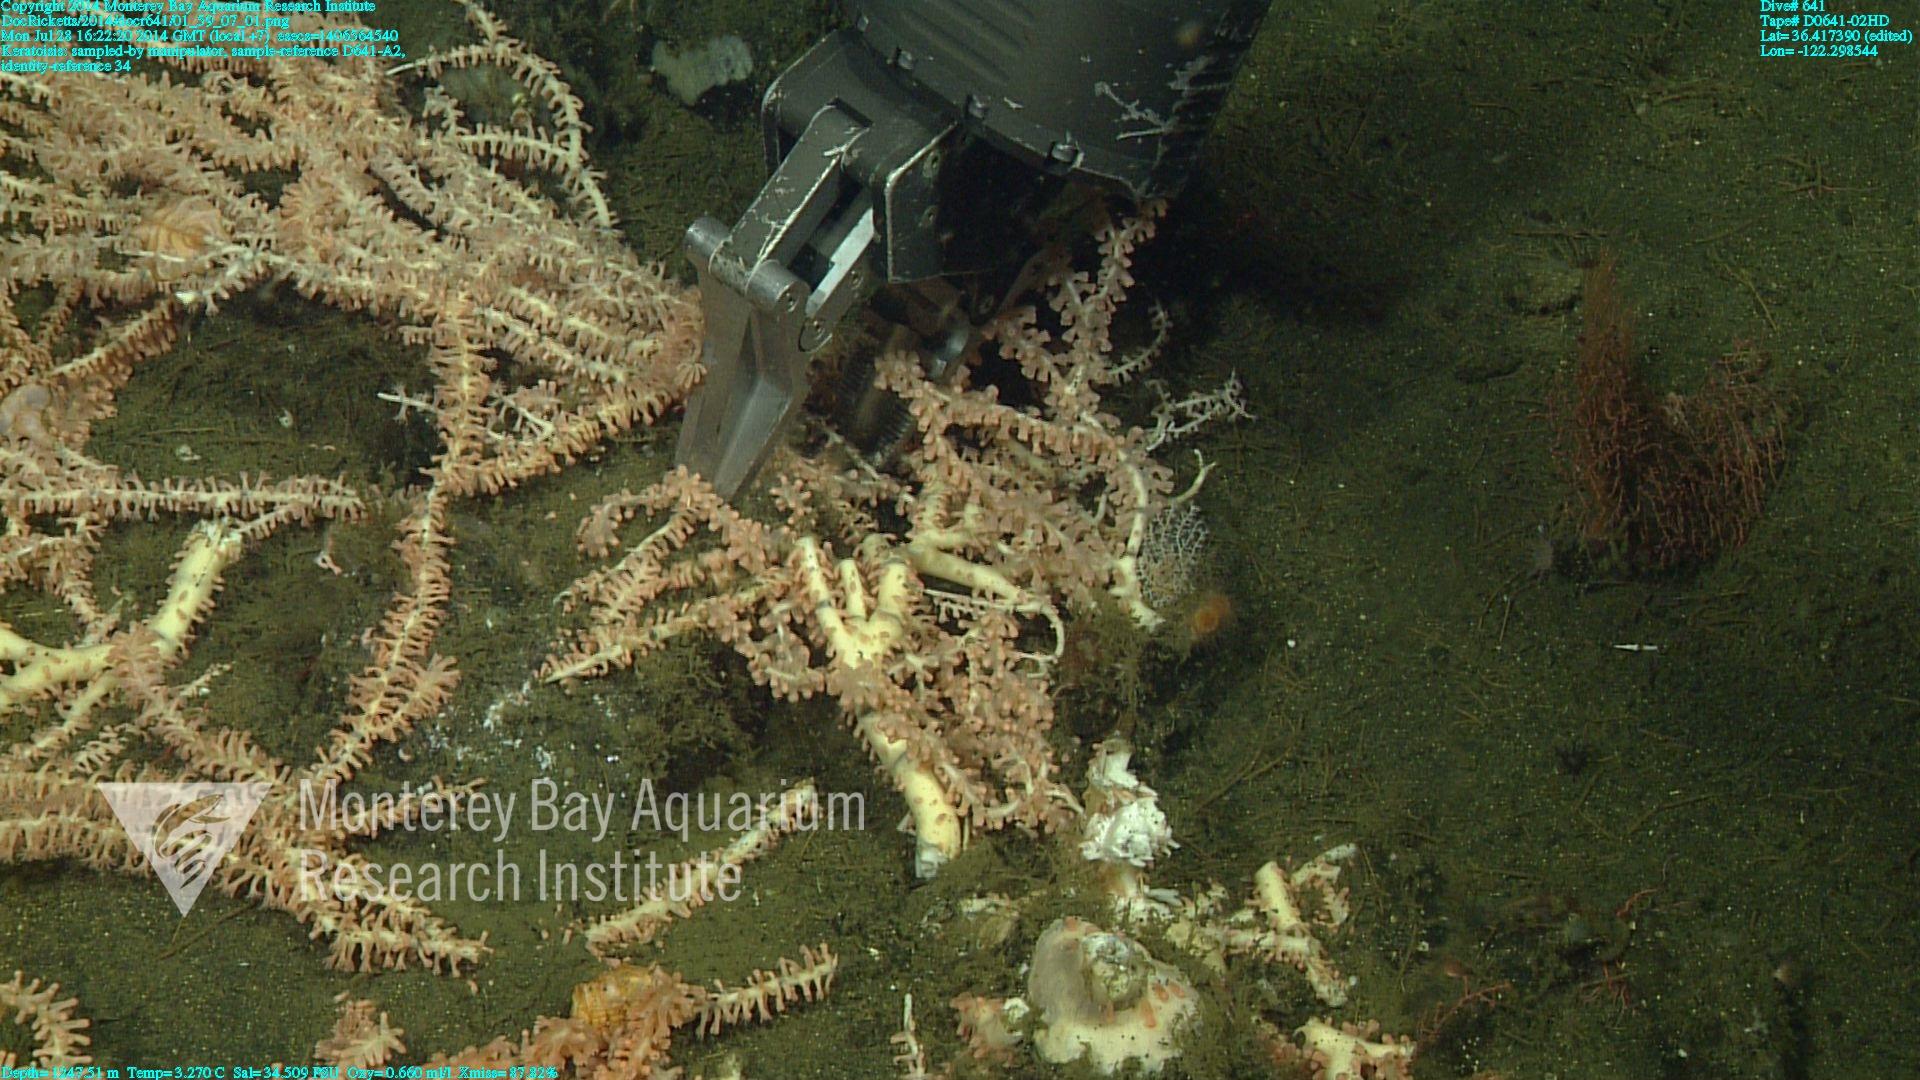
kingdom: Animalia
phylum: Cnidaria
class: Anthozoa
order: Scleralcyonacea
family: Keratoisididae
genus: Keratoisis
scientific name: Keratoisis
